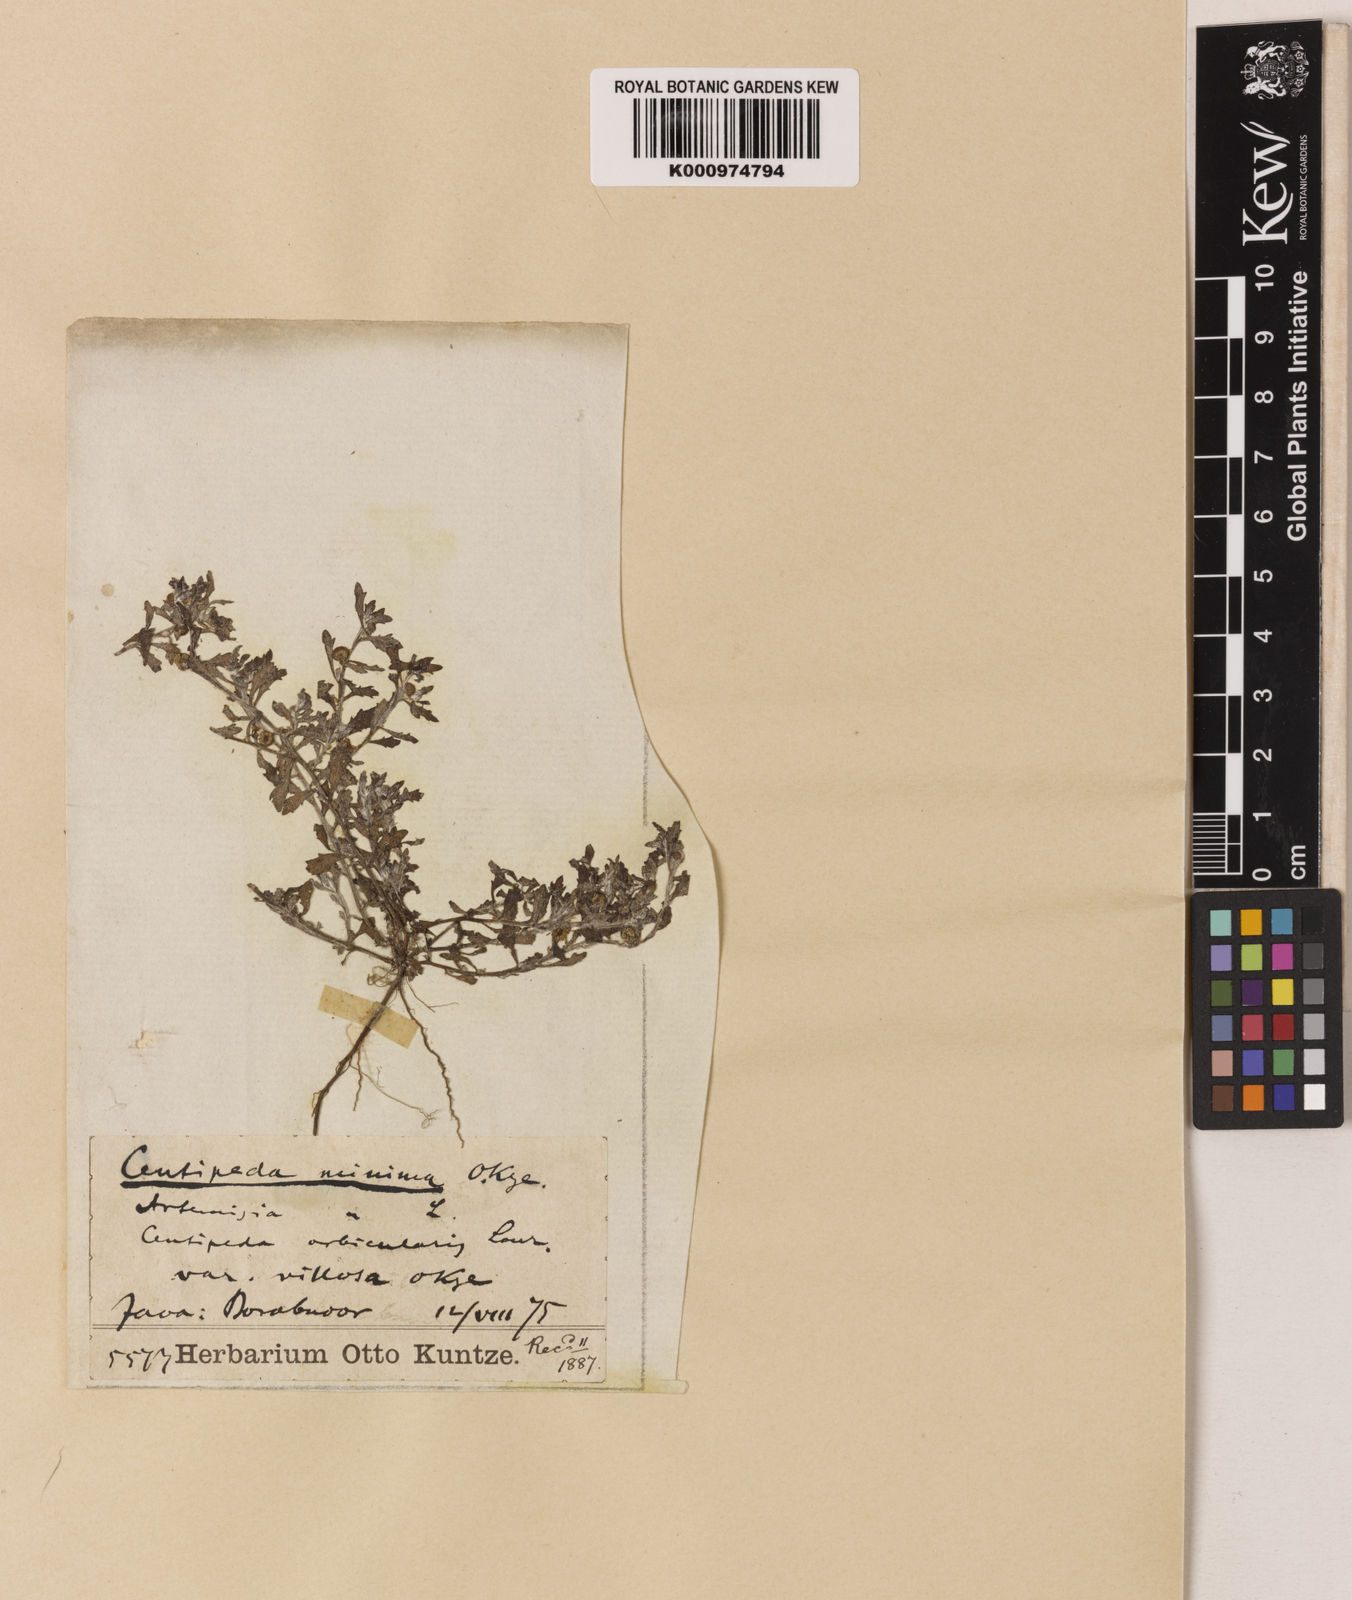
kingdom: Plantae
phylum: Tracheophyta
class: Magnoliopsida
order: Asterales
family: Asteraceae
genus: Centipeda
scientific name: Centipeda minima
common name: Spreading sneezeweed
